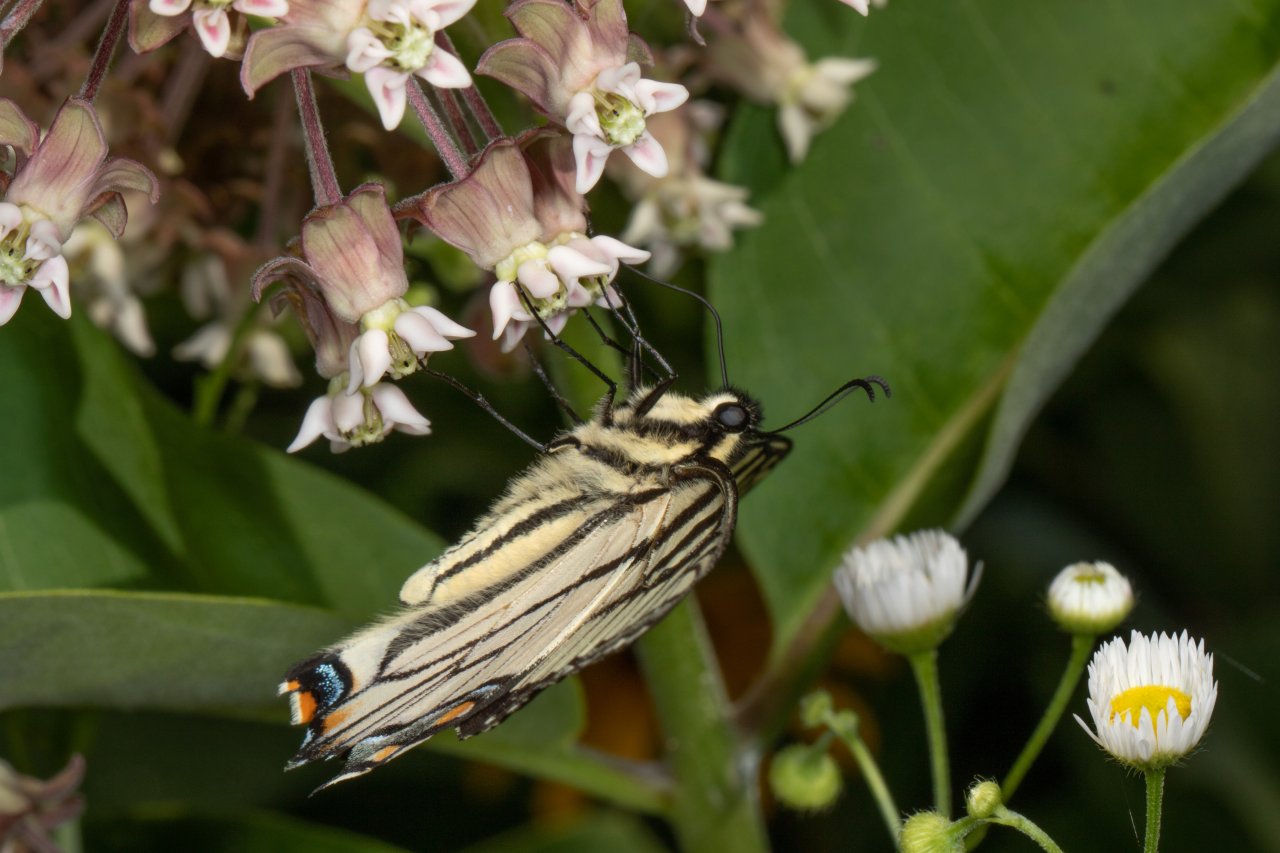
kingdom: Animalia
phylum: Arthropoda
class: Insecta
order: Lepidoptera
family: Papilionidae
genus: Pterourus
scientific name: Pterourus
